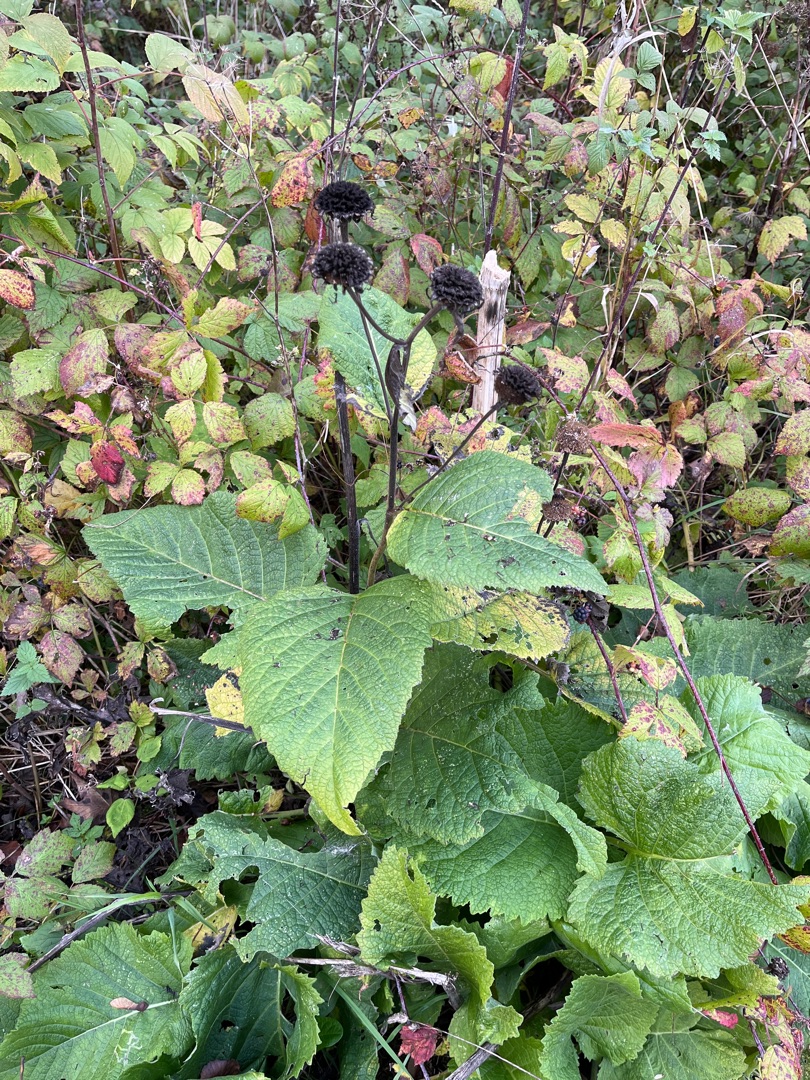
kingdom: Plantae
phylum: Tracheophyta
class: Magnoliopsida
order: Asterales
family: Asteraceae
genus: Telekia
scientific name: Telekia speciosa
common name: Tusindstråle
